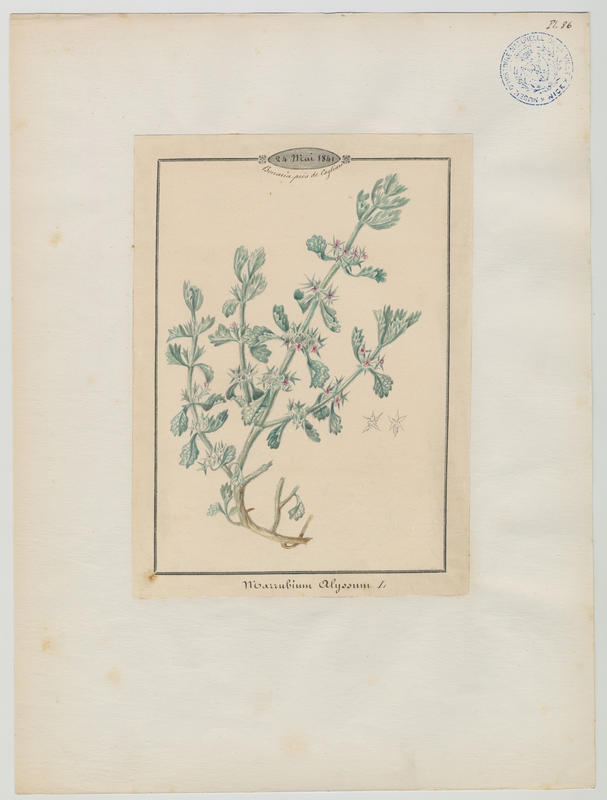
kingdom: Plantae
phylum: Tracheophyta
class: Magnoliopsida
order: Lamiales
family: Lamiaceae
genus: Marrubium
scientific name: Marrubium alysson
